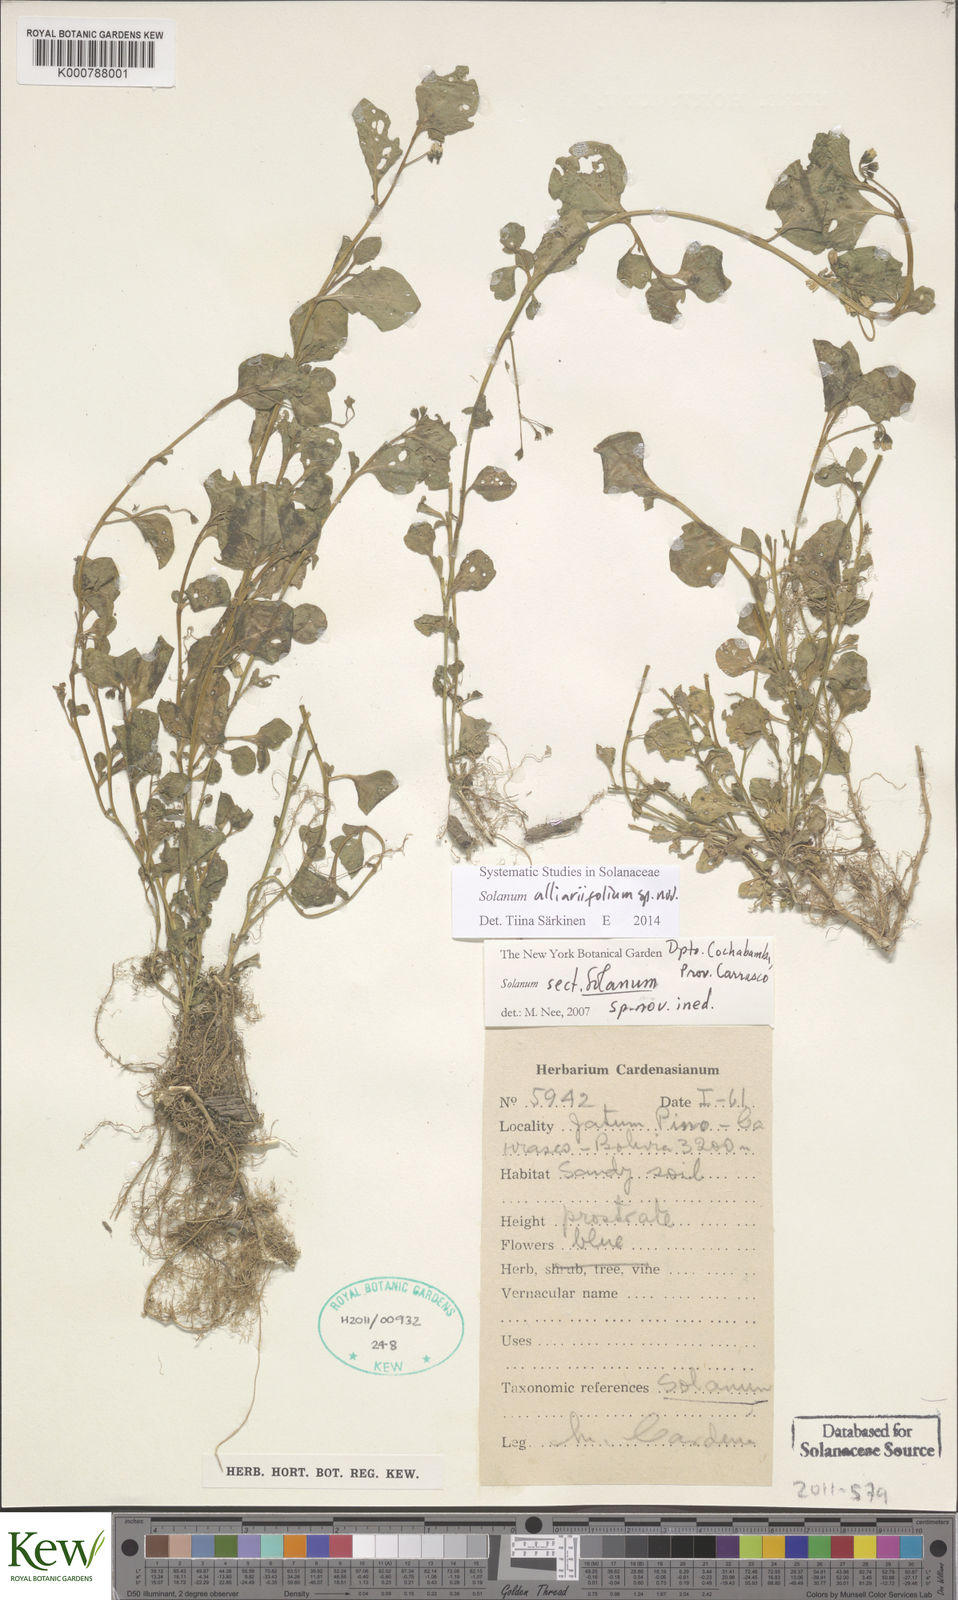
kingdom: Plantae
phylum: Tracheophyta
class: Magnoliopsida
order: Solanales
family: Solanaceae
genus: Solanum
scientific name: Solanum alliariifolium
